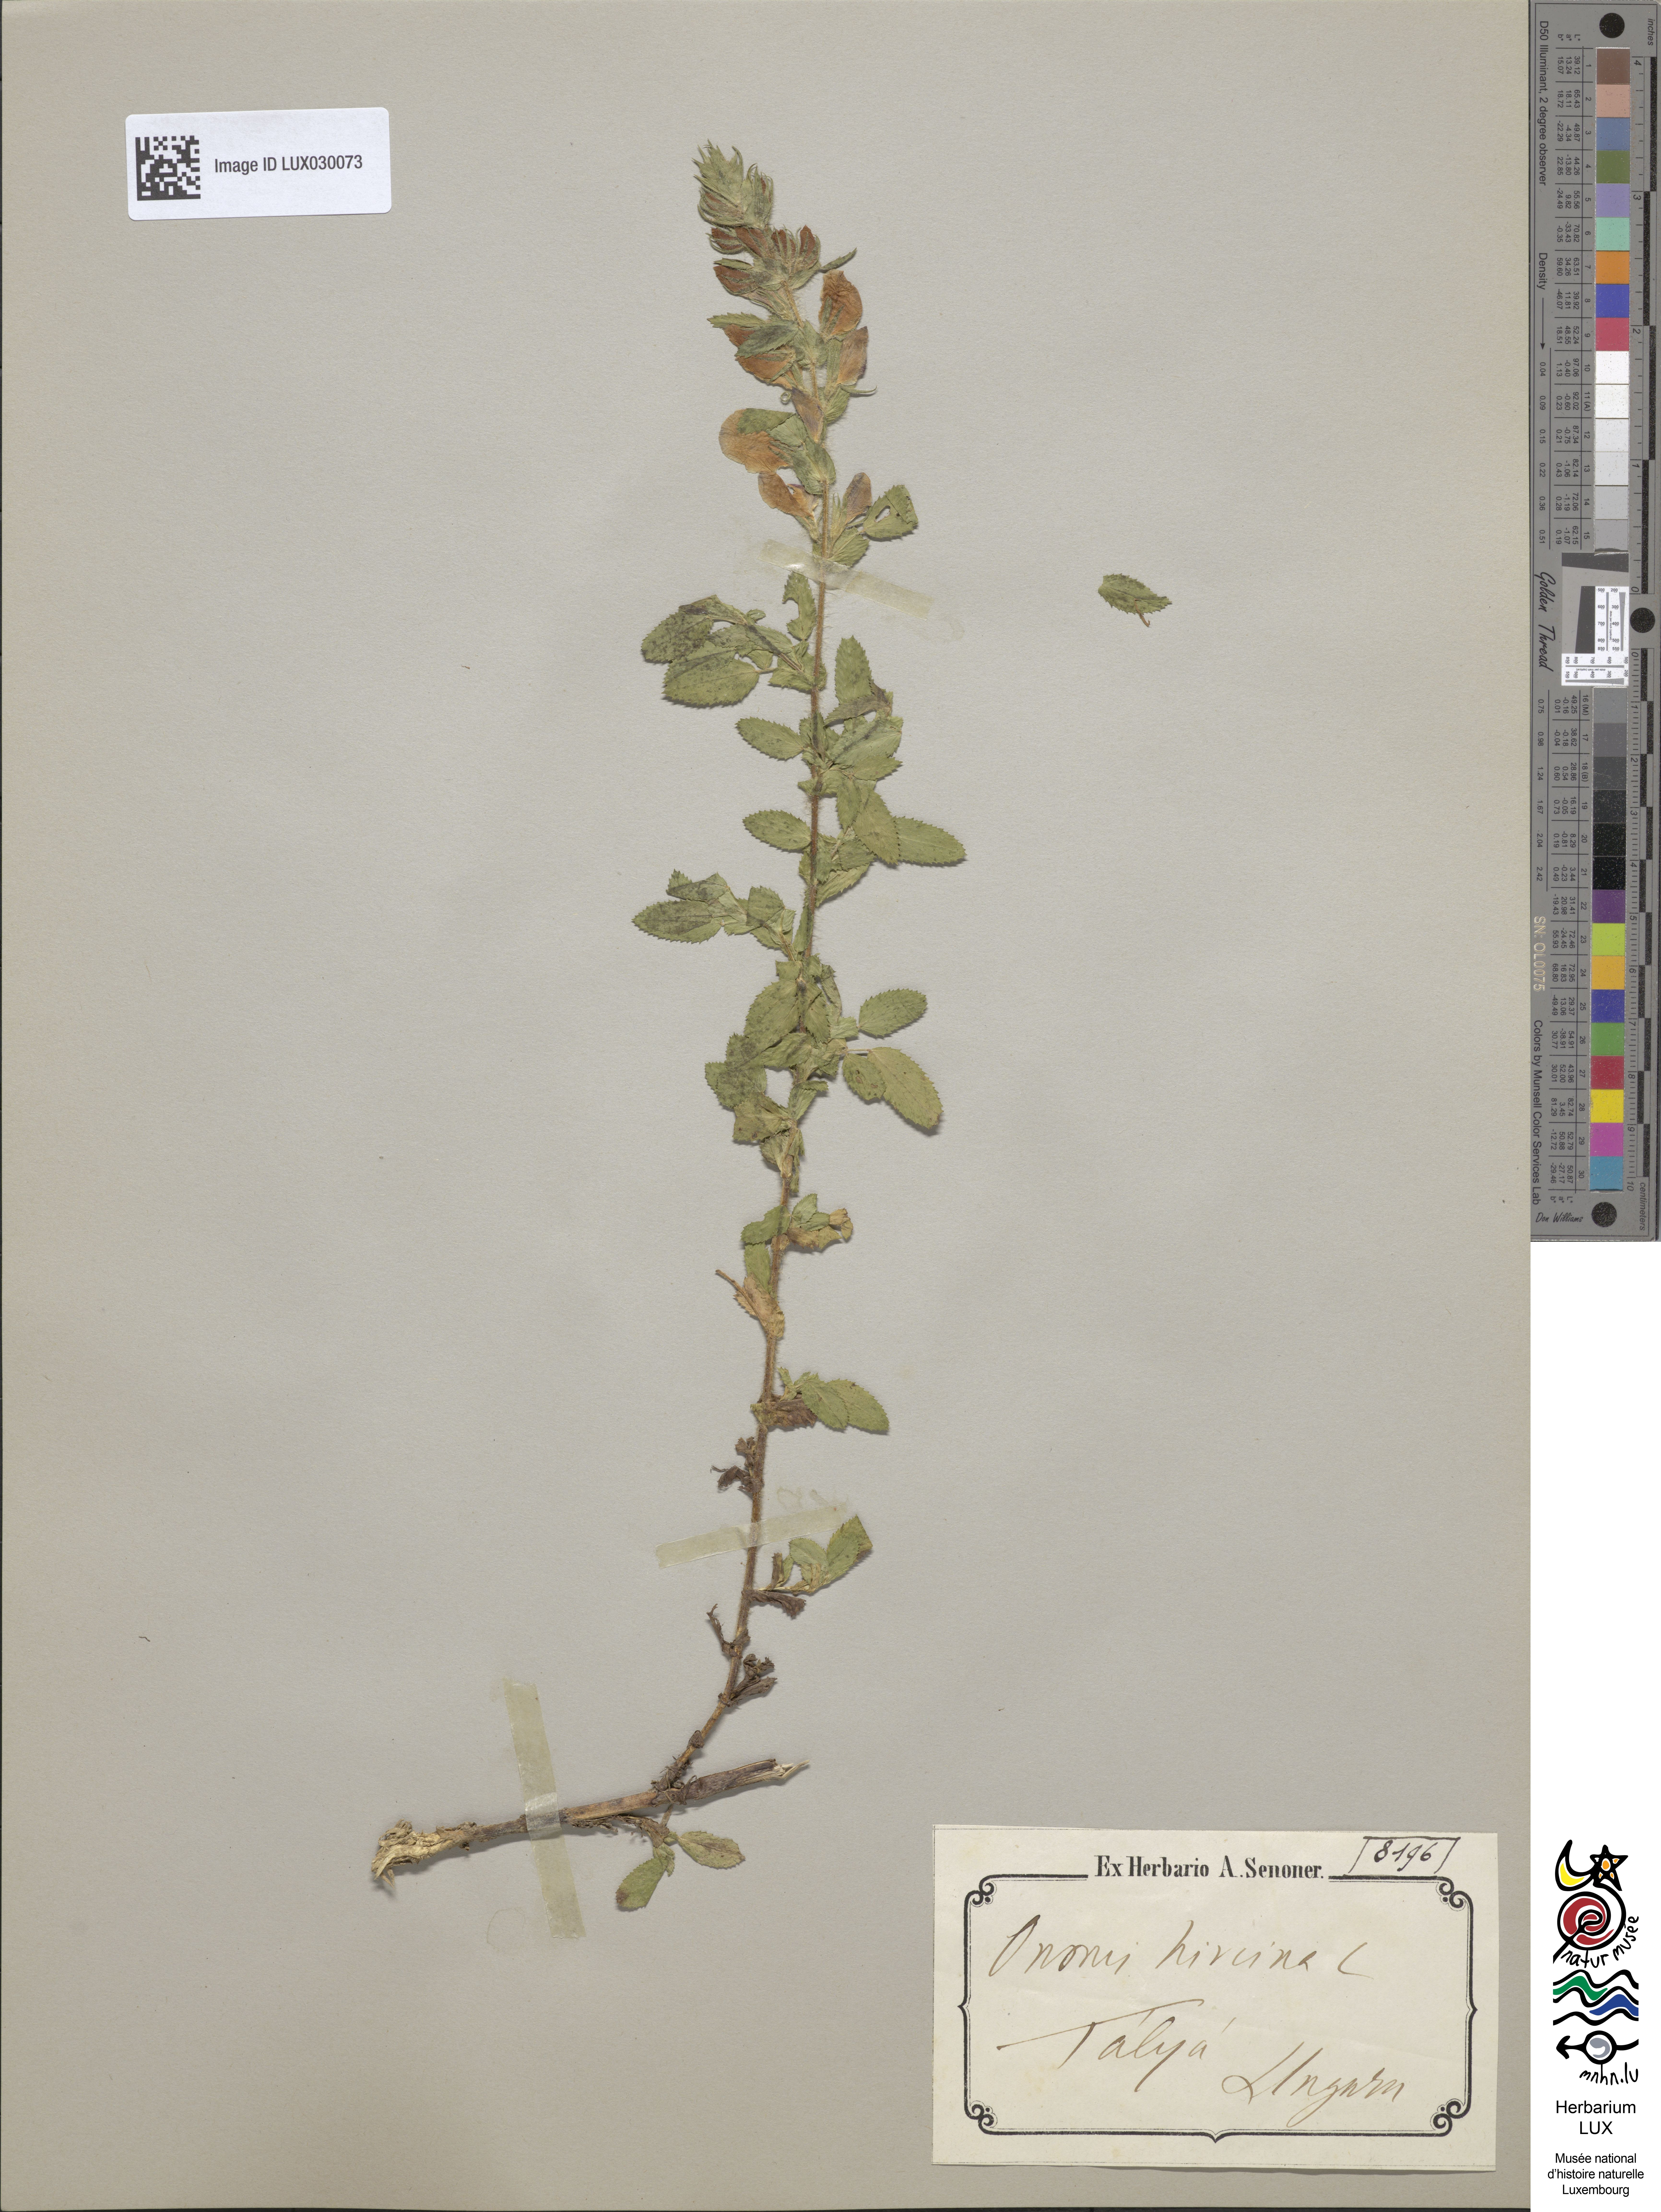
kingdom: Plantae
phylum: Tracheophyta
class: Magnoliopsida
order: Fabales
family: Fabaceae
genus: Ononis
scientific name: Ononis arvensis
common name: Field restharrow
